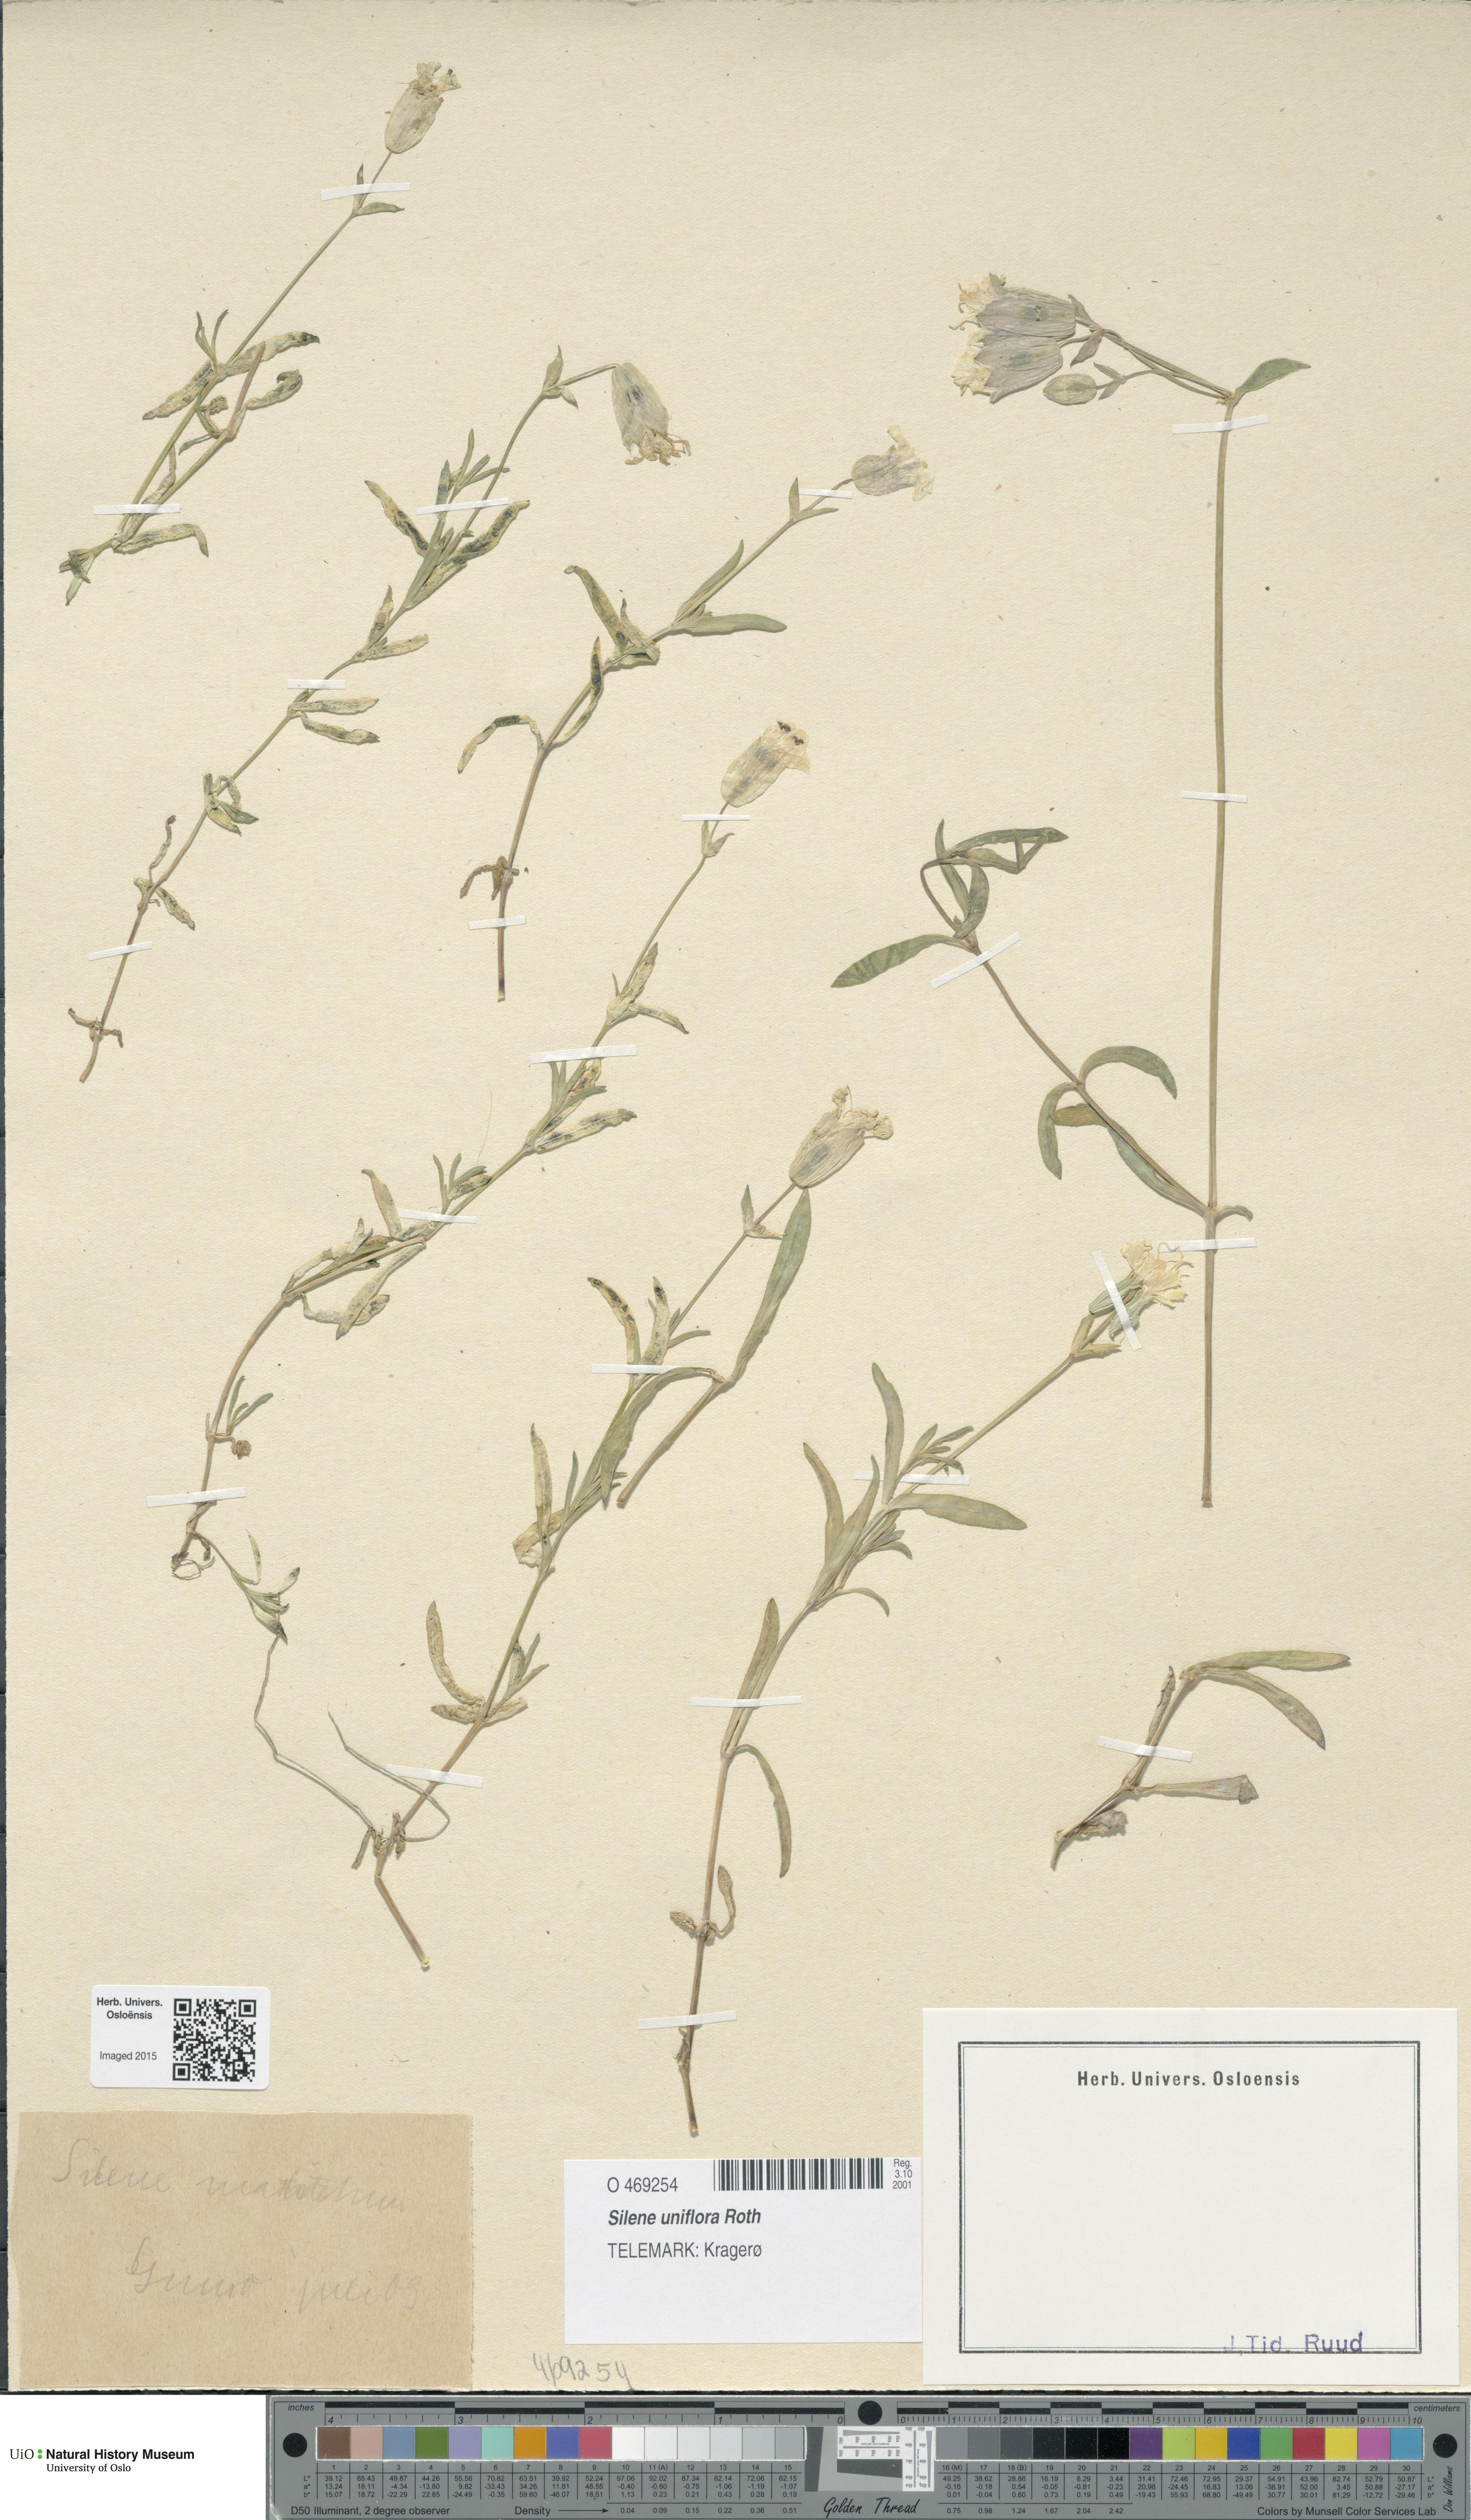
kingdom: Plantae
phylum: Tracheophyta
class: Magnoliopsida
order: Caryophyllales
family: Caryophyllaceae
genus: Silene
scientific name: Silene uniflora
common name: Sea campion
